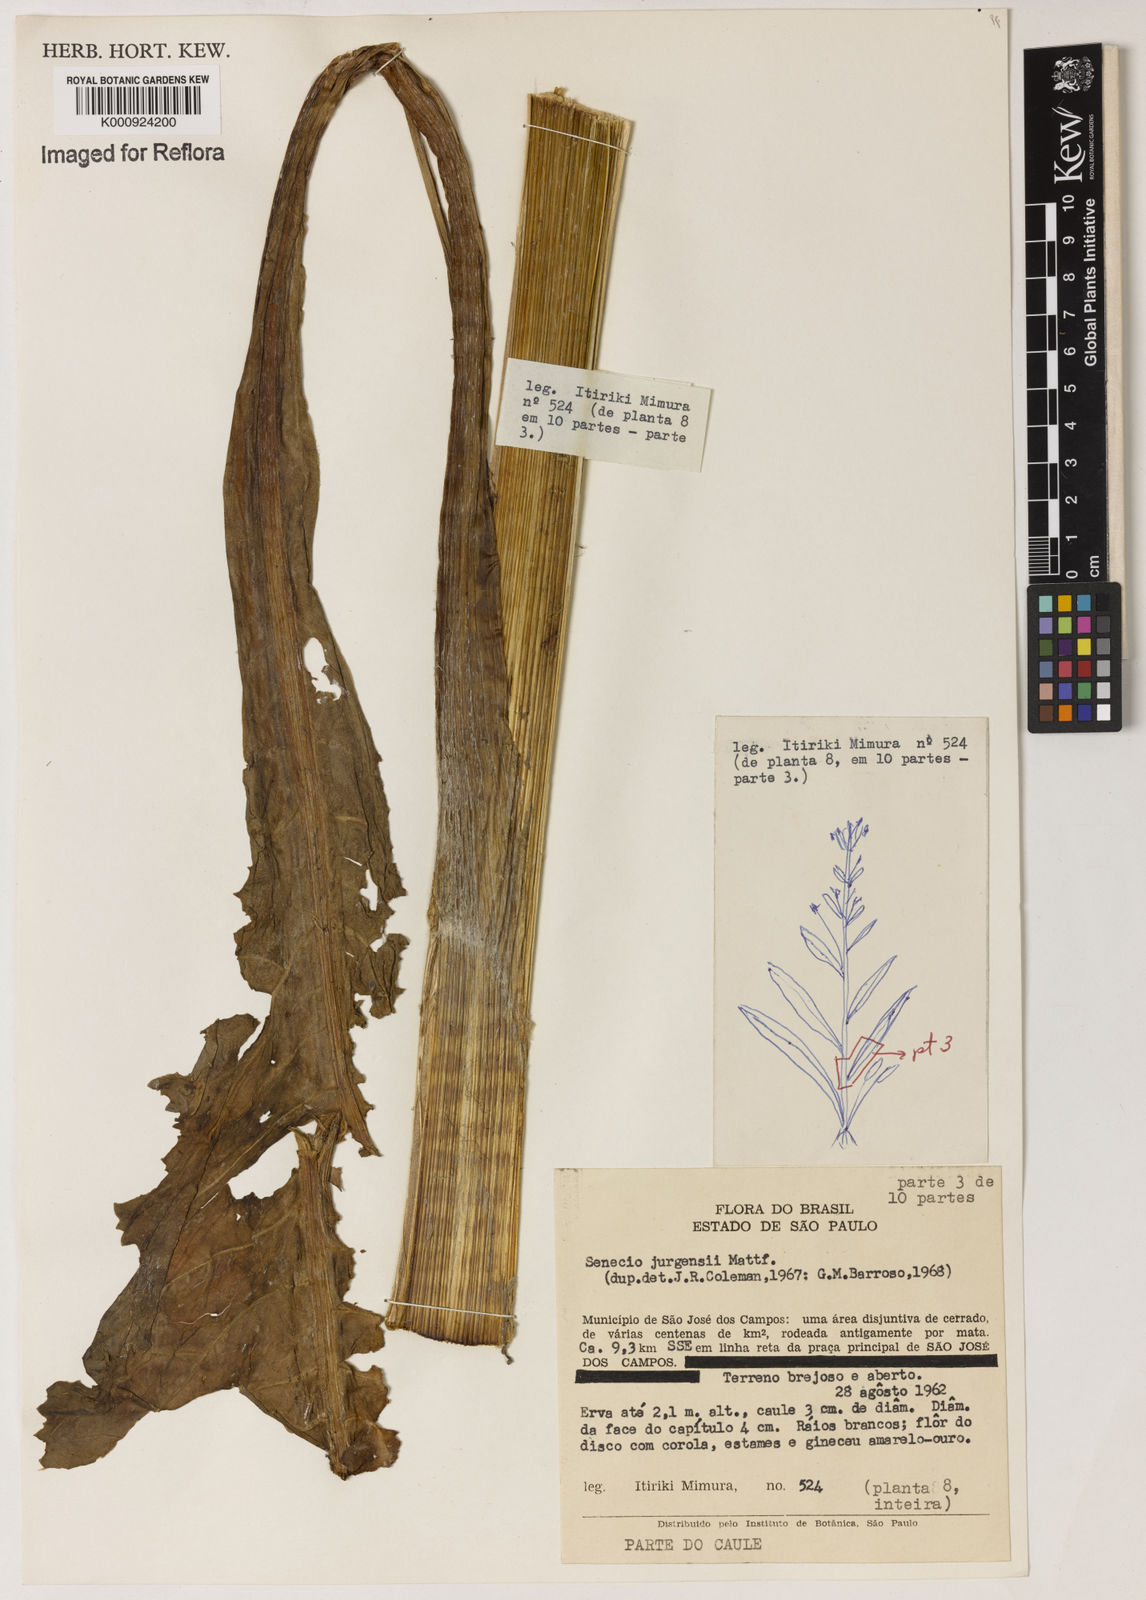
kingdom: Plantae
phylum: Tracheophyta
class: Magnoliopsida
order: Asterales
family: Asteraceae
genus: Senecio
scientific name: Senecio juergensii
